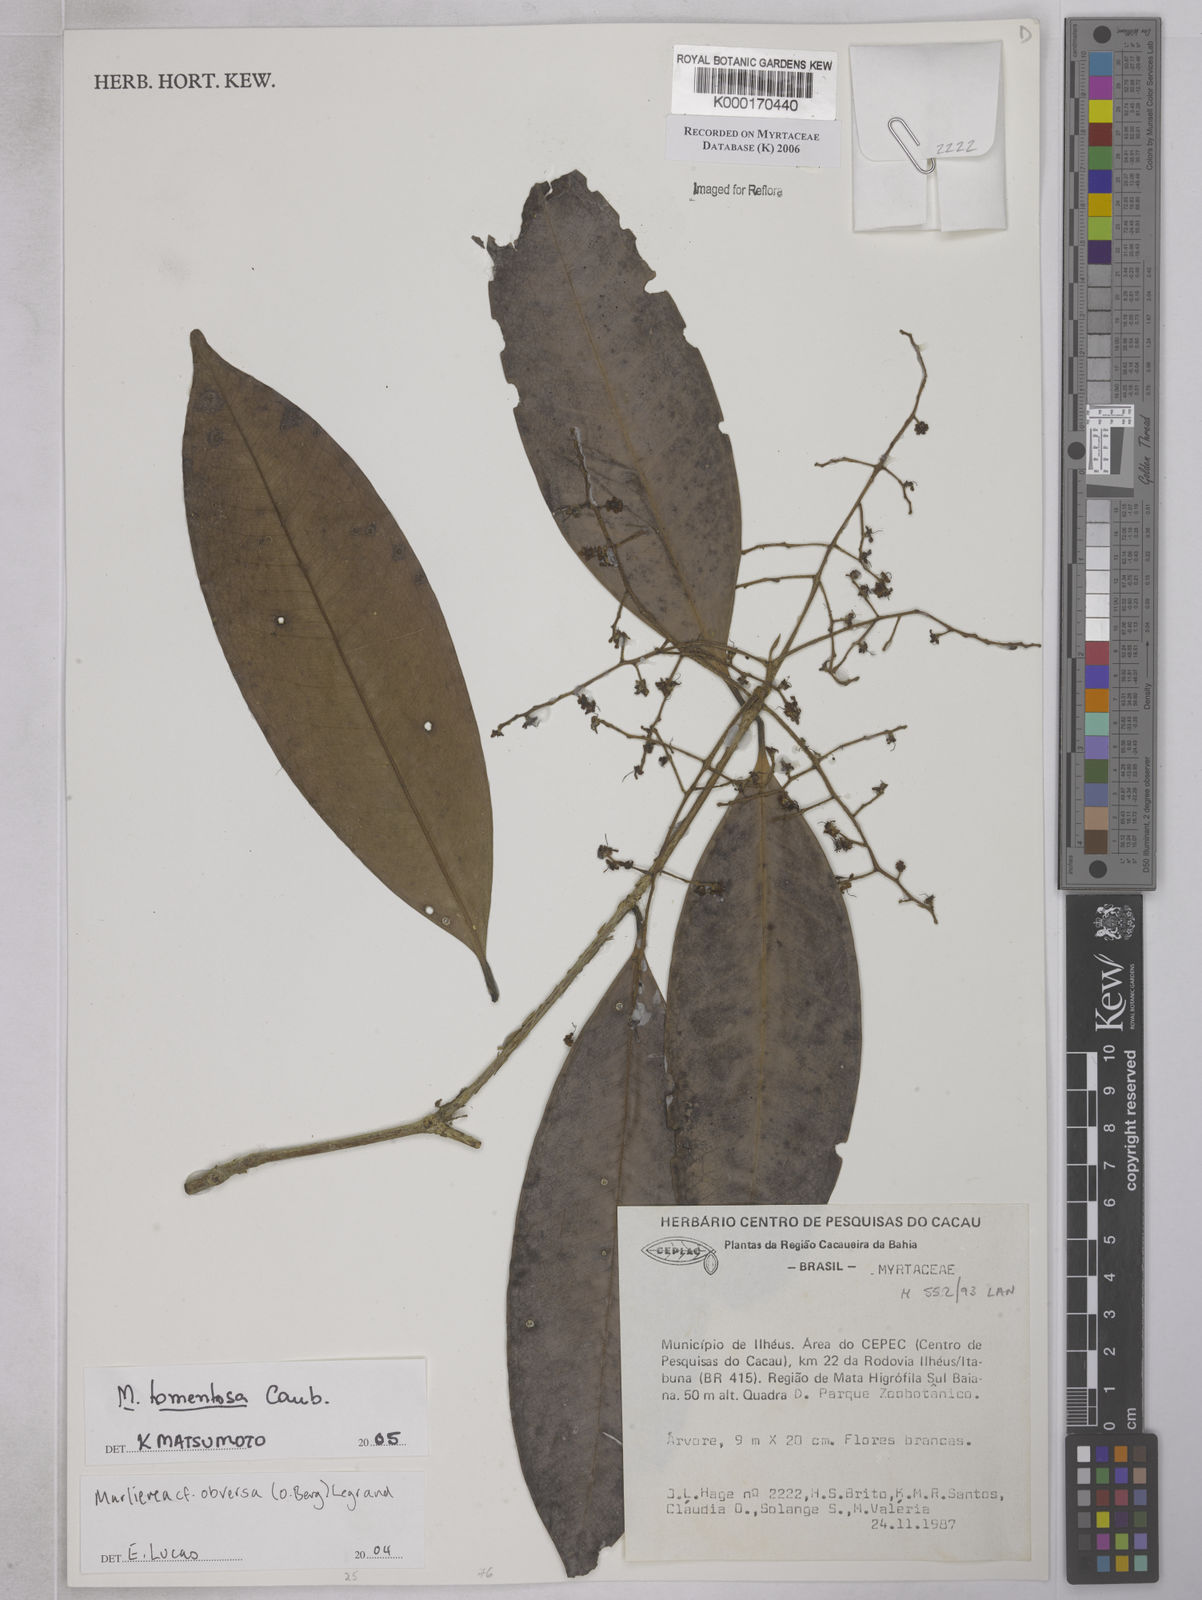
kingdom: Plantae
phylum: Tracheophyta
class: Magnoliopsida
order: Myrtales
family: Myrtaceae
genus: Marlierea
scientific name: Marlierea
